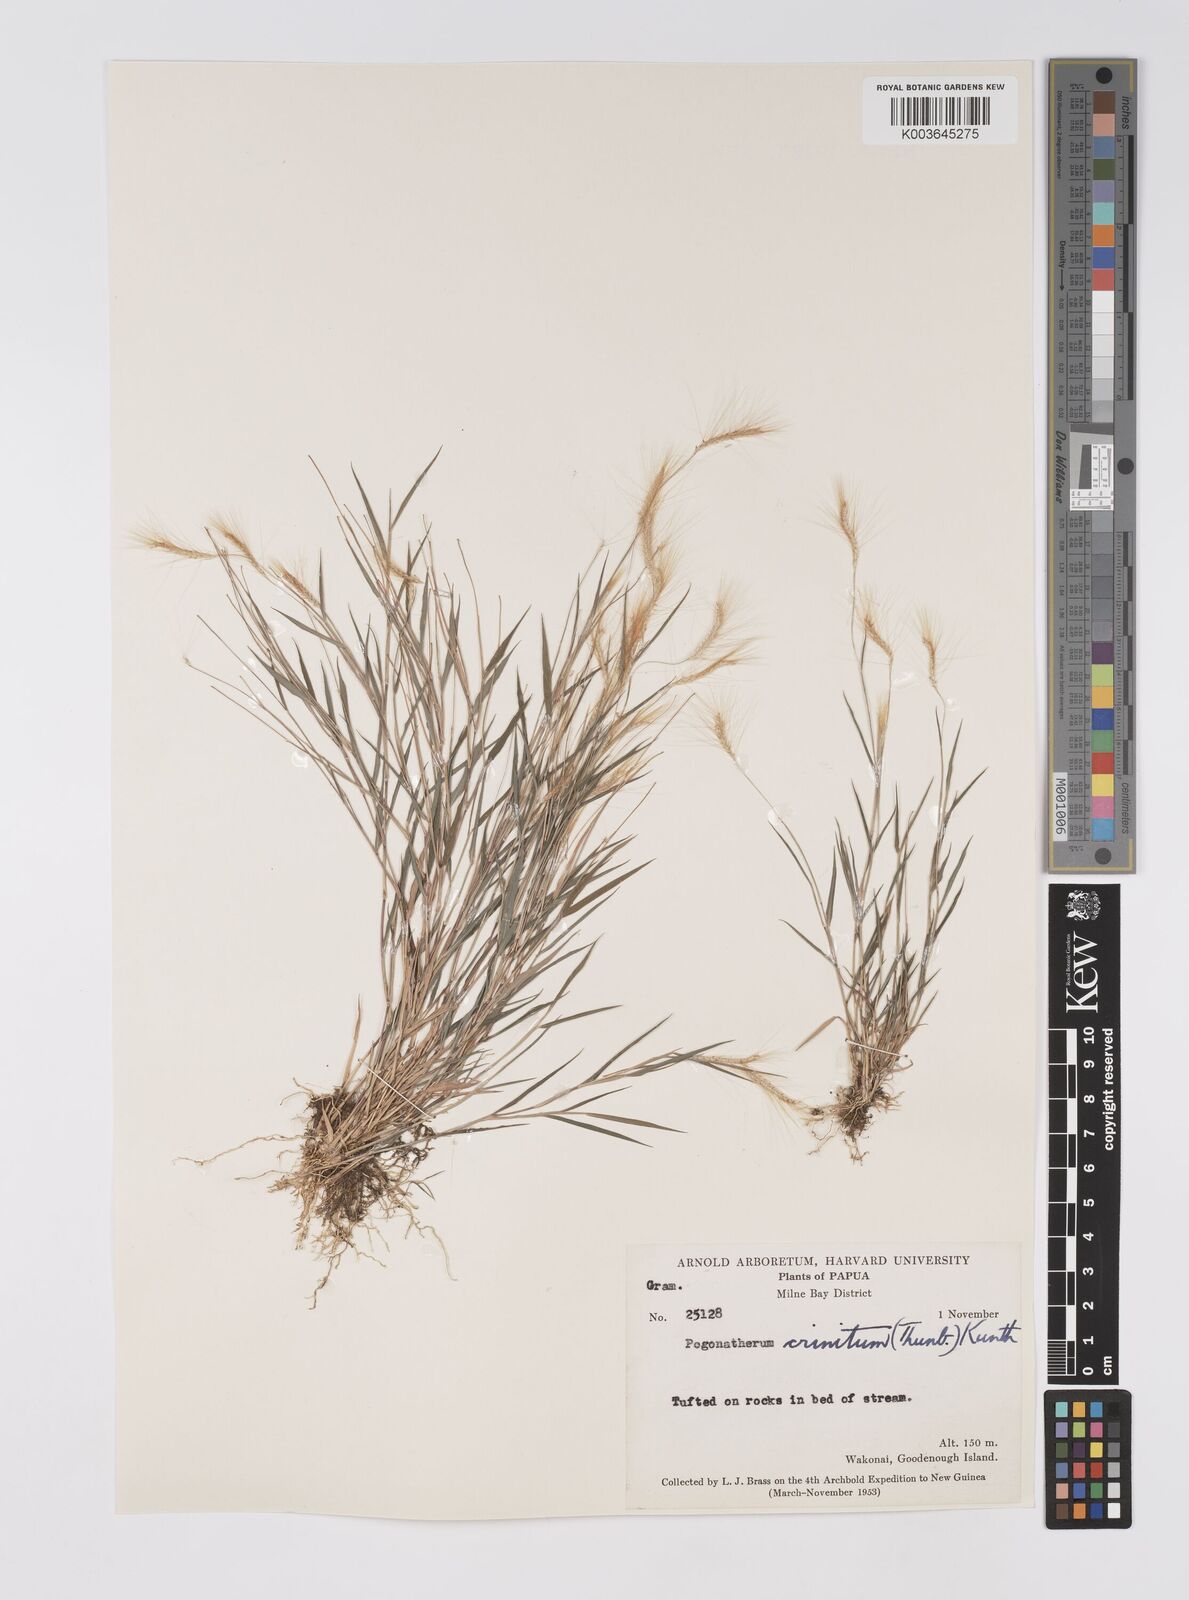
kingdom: Plantae
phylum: Tracheophyta
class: Liliopsida
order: Poales
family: Poaceae
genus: Pogonatherum
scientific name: Pogonatherum crinitum
